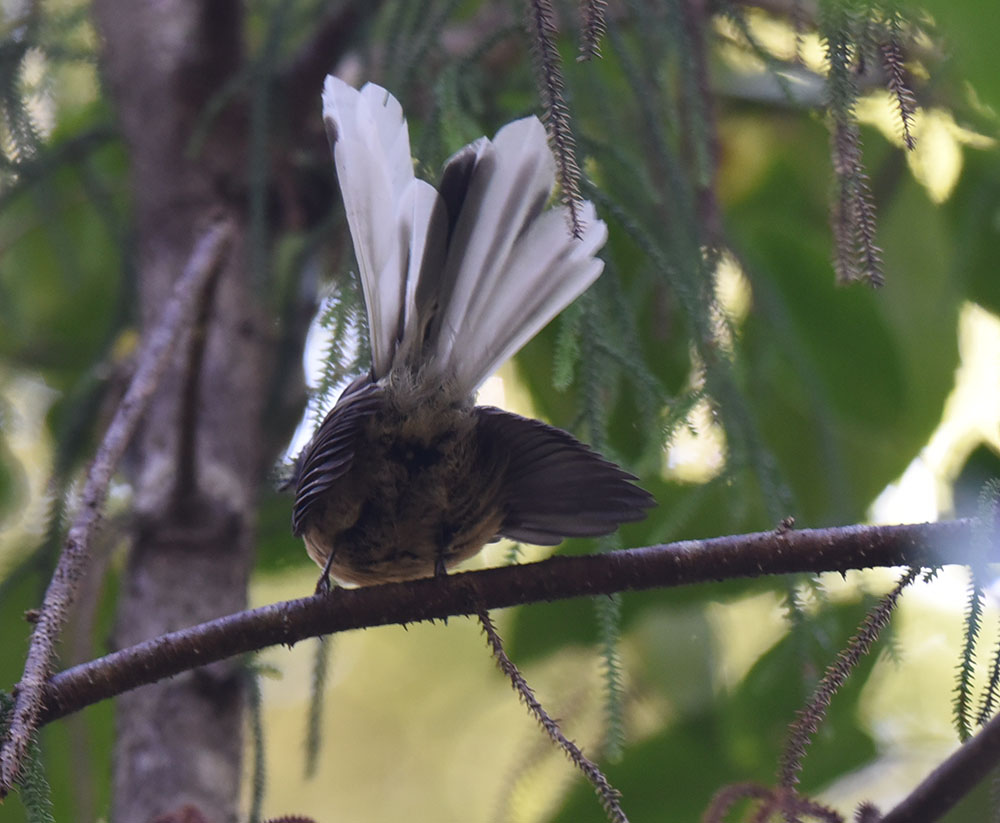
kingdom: Animalia
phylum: Chordata
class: Aves
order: Passeriformes
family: Rhipiduridae
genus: Rhipidura
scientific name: Rhipidura fuliginosa
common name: New zealand fantail
